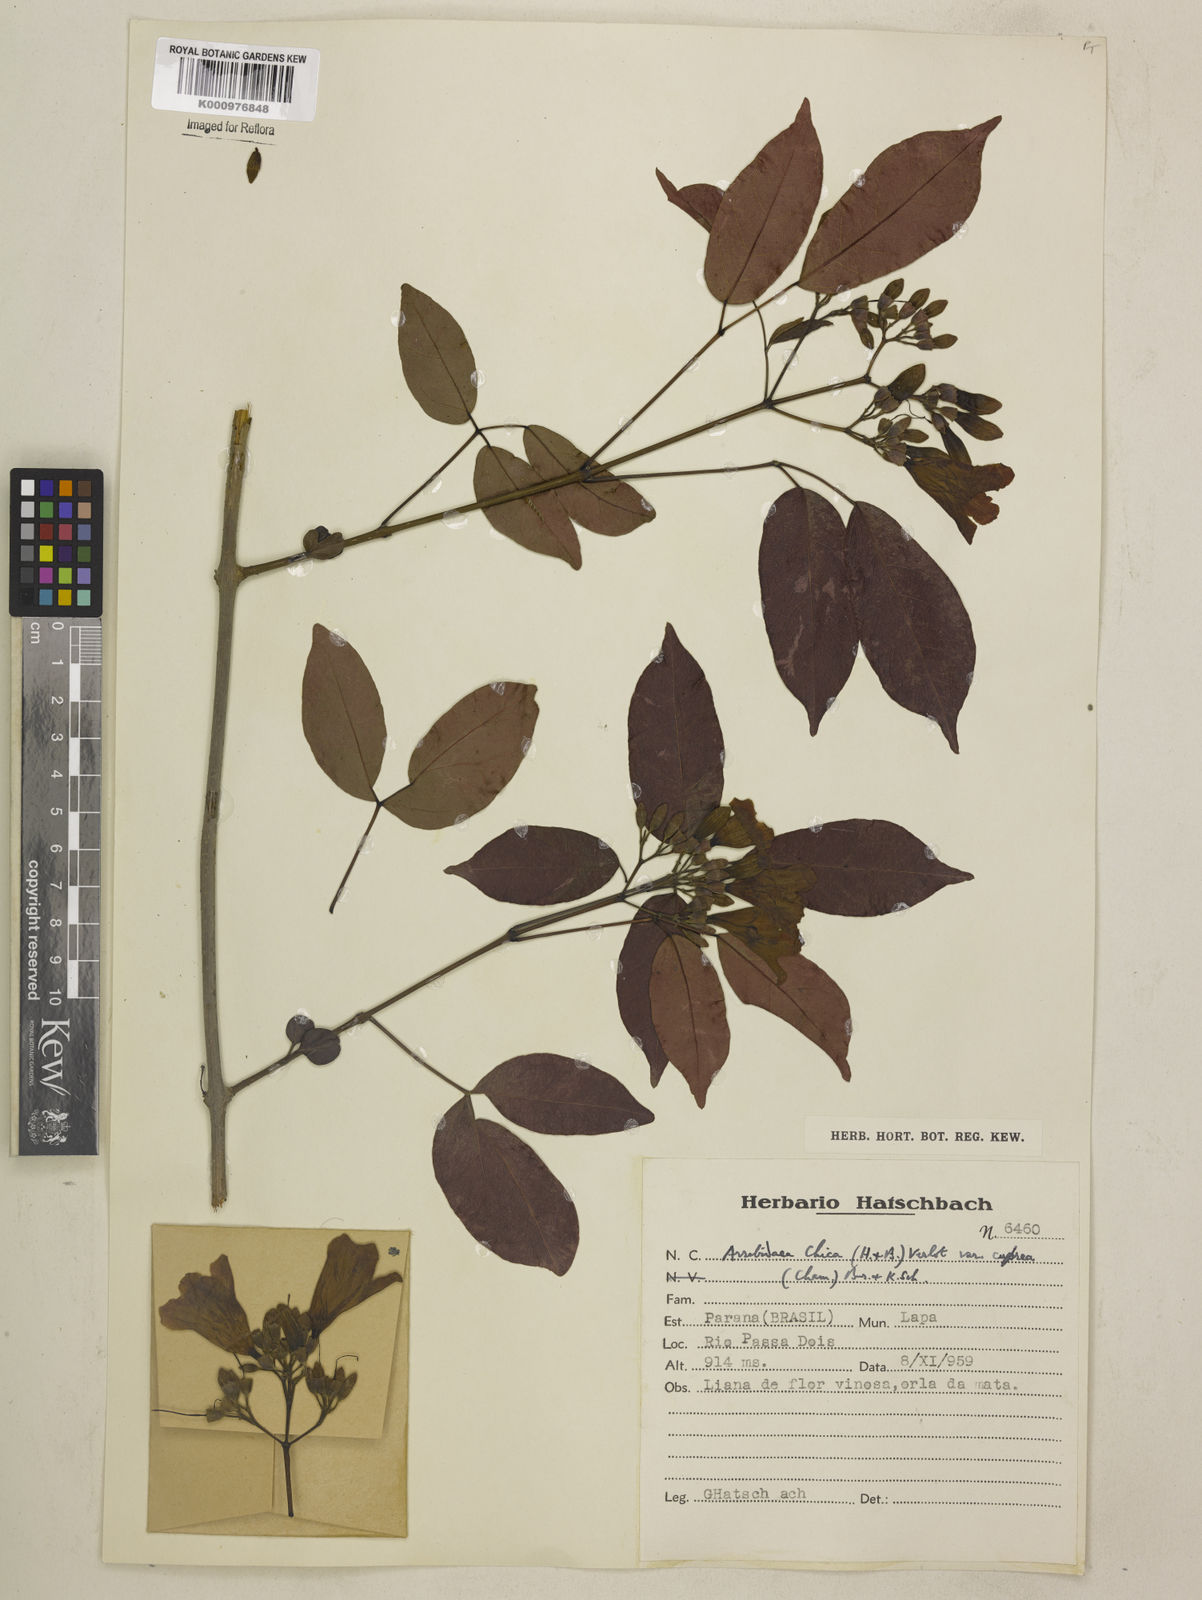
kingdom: Plantae
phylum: Tracheophyta
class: Magnoliopsida
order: Lamiales
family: Bignoniaceae
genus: Fridericia
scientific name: Fridericia chica
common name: Cricketvine
